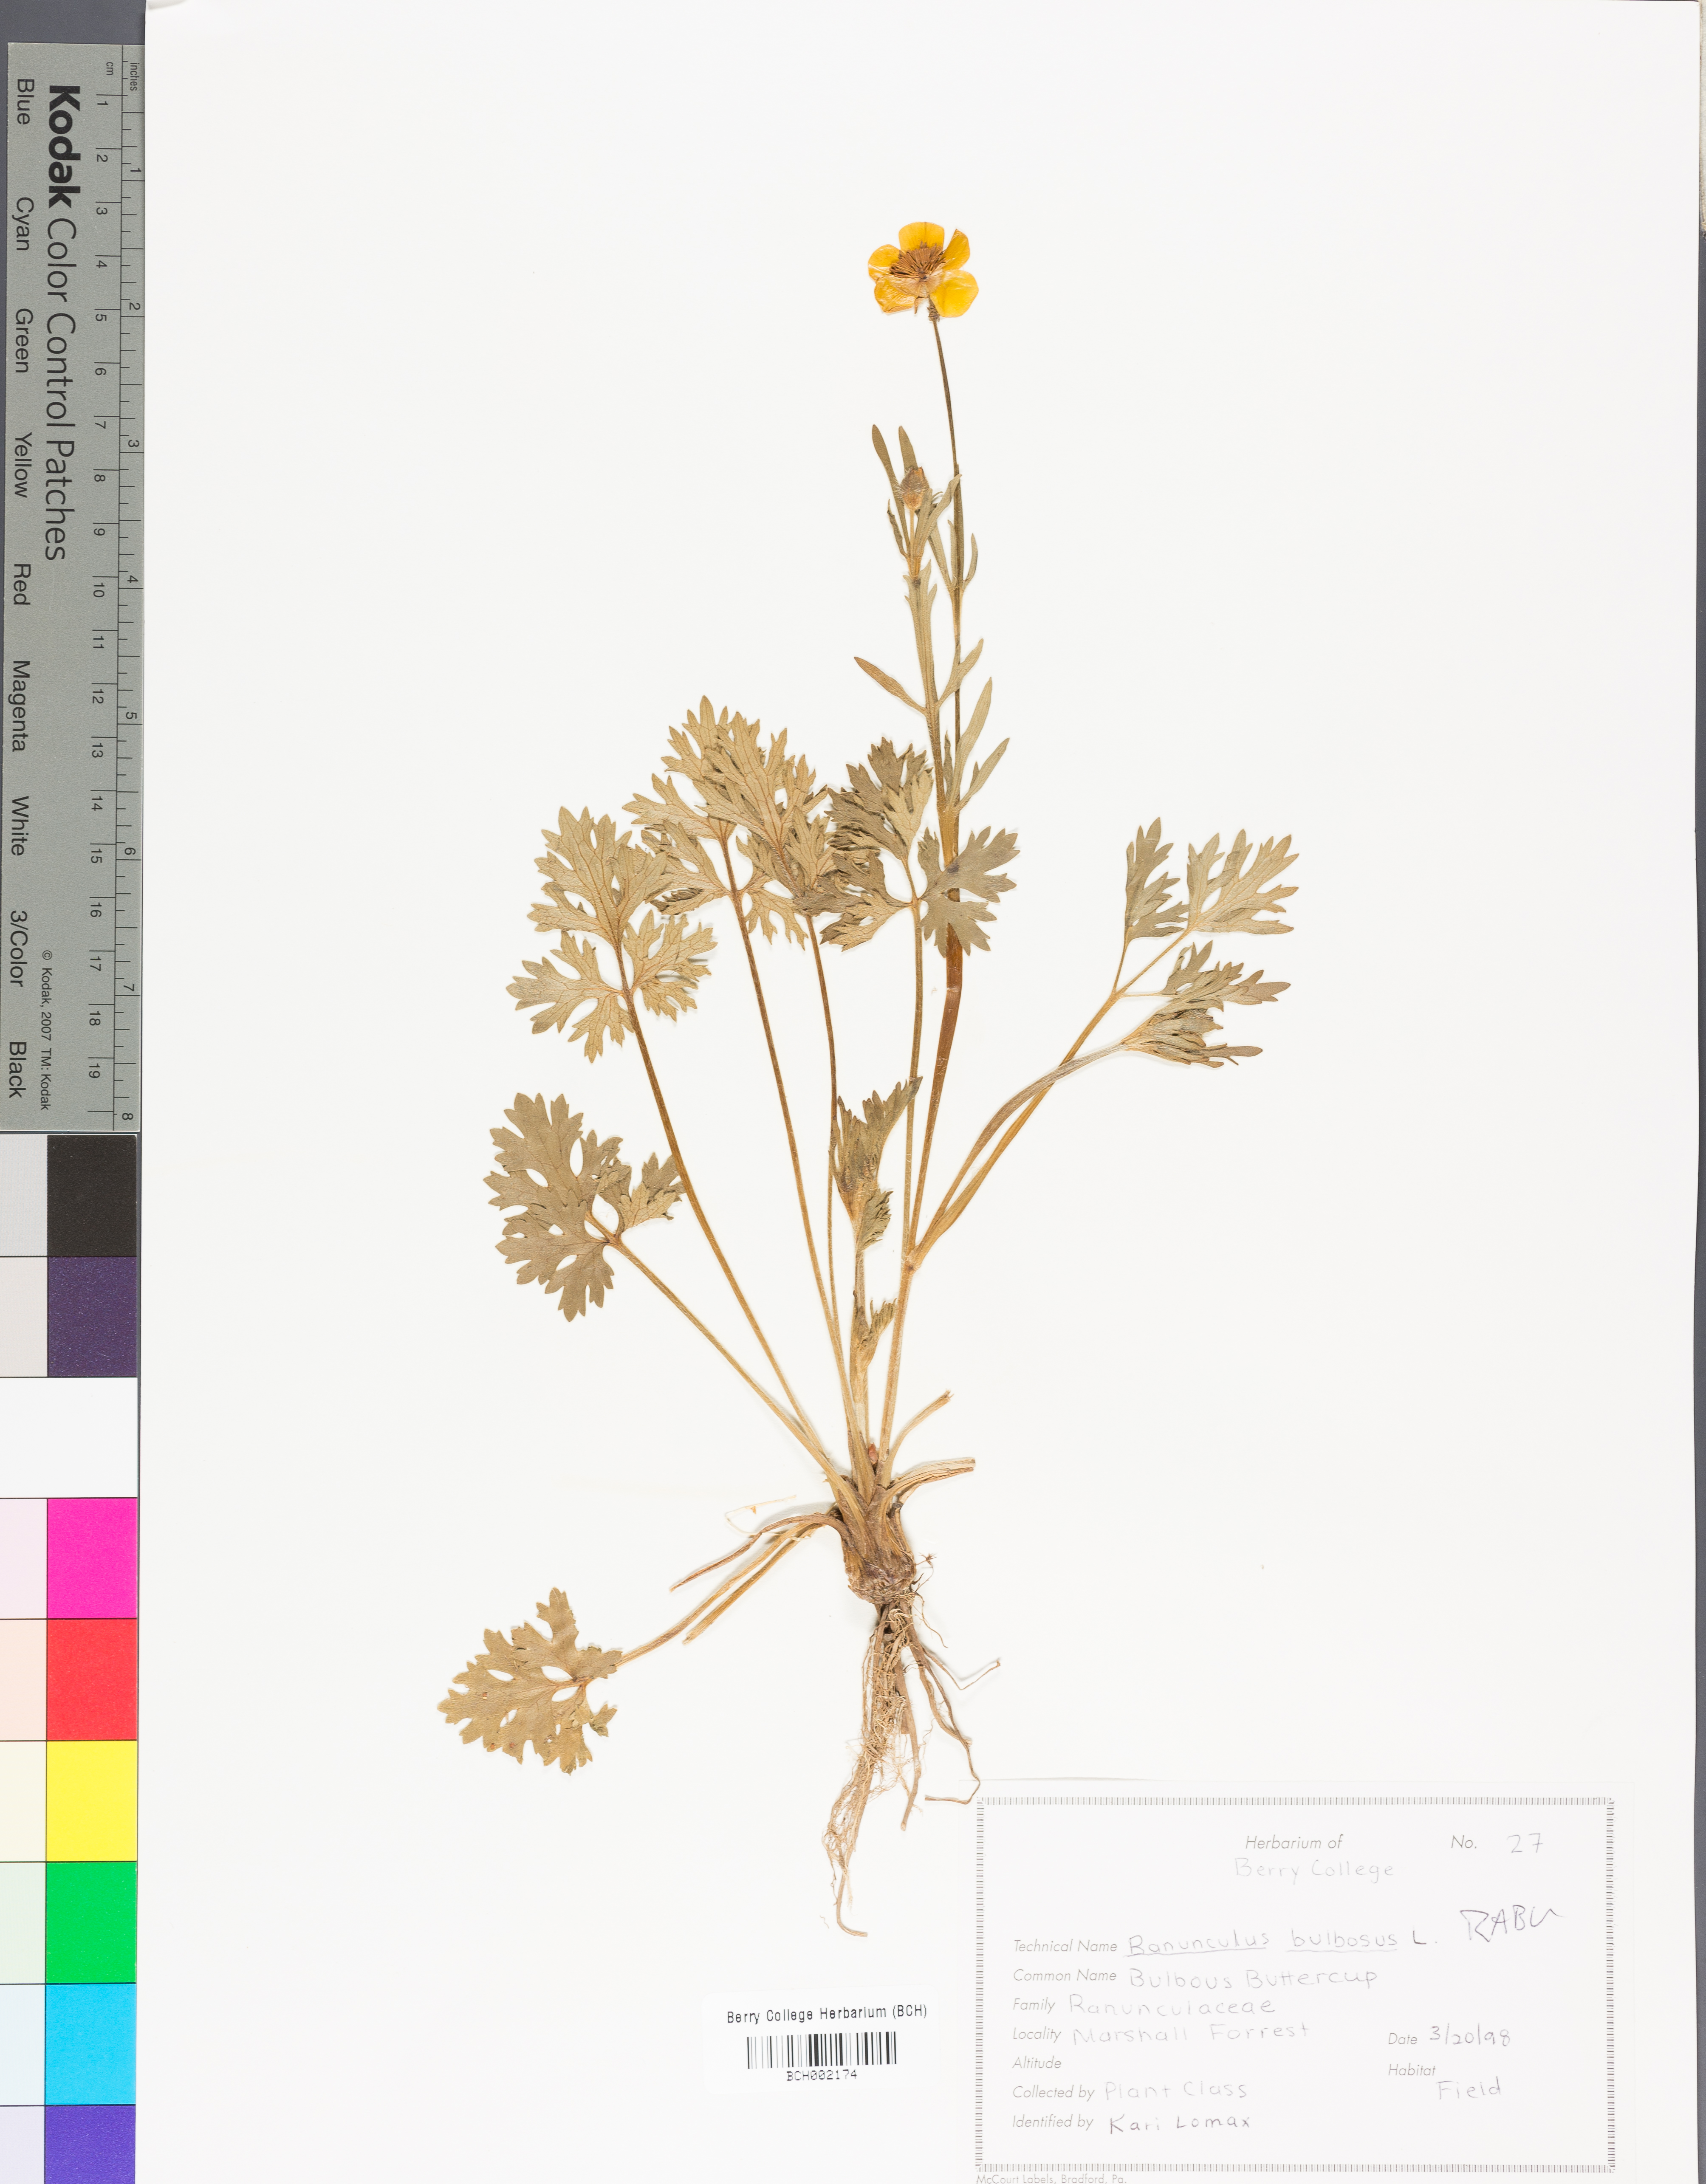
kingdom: Plantae
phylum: Tracheophyta
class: Magnoliopsida
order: Ranunculales
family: Ranunculaceae
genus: Ranunculus
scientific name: Ranunculus bulbosus
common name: Bulbous buttercup
